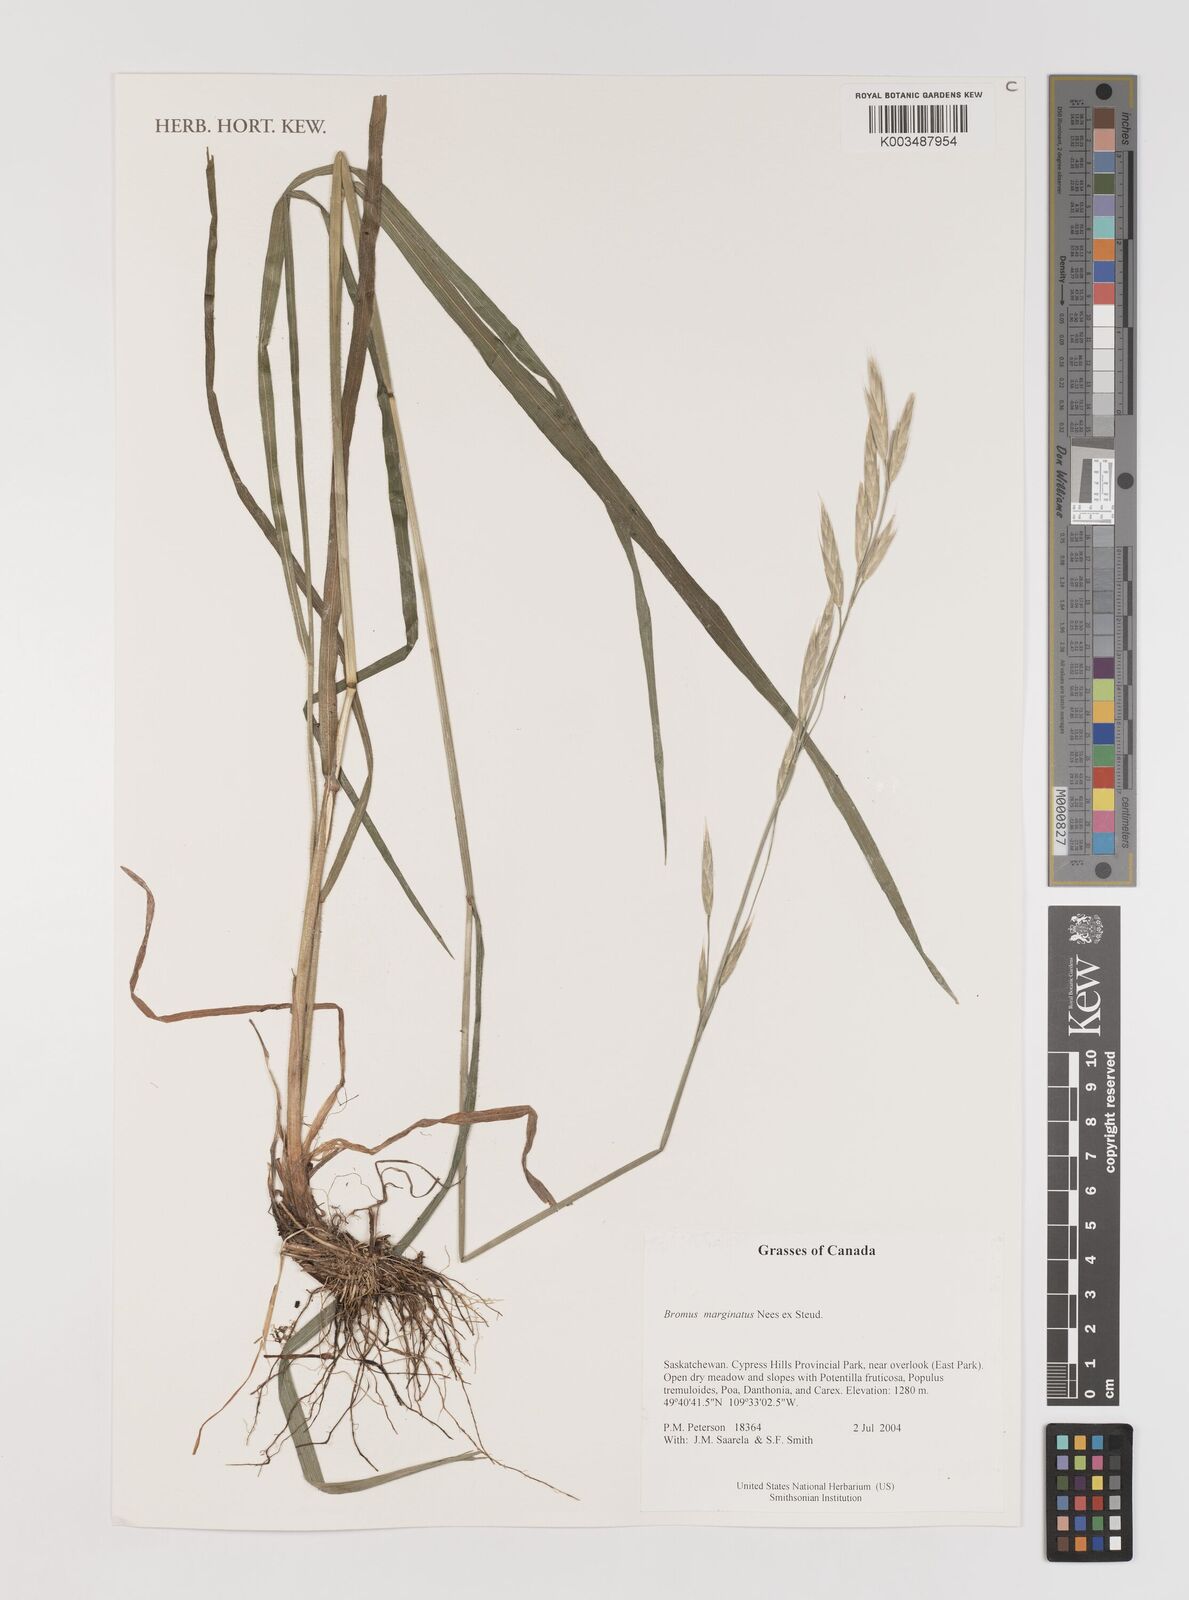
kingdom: Plantae
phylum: Tracheophyta
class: Liliopsida
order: Poales
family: Poaceae
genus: Bromus
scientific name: Bromus marginatus
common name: Western brome
